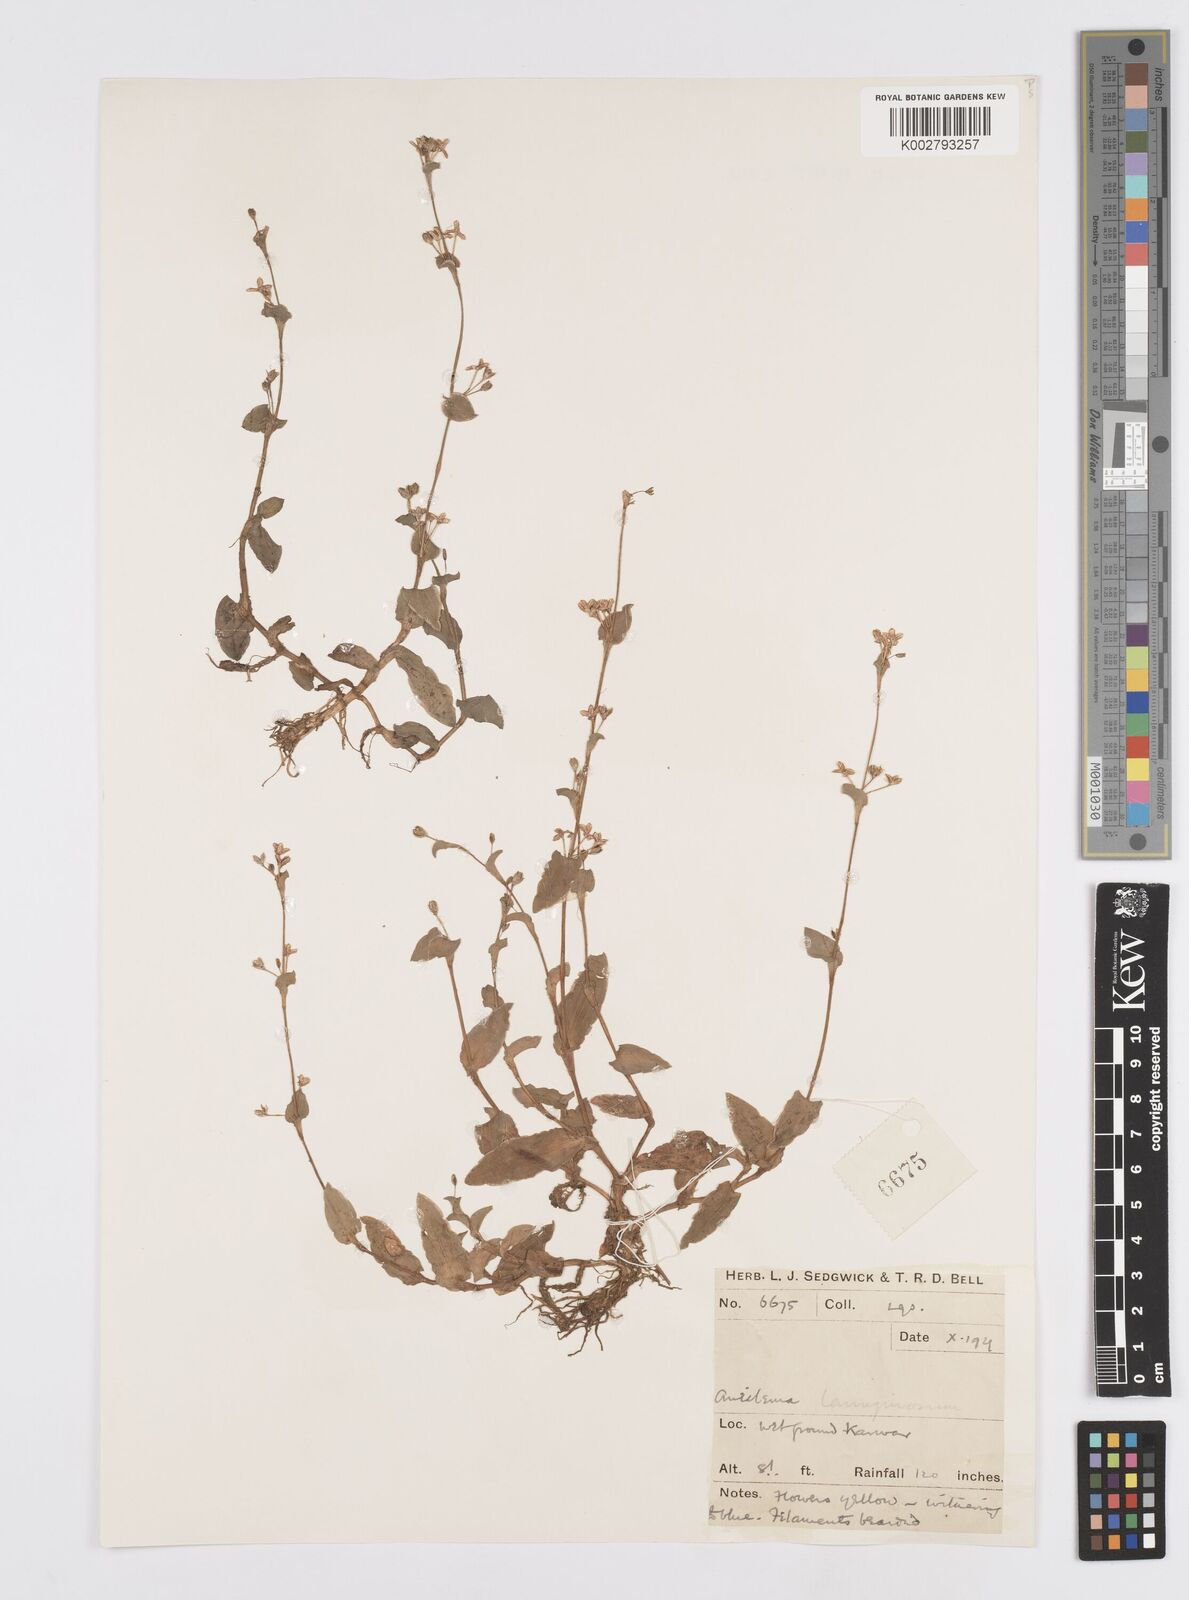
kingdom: Plantae
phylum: Tracheophyta
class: Liliopsida
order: Commelinales
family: Commelinaceae
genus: Murdannia
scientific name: Murdannia lanuginosa
